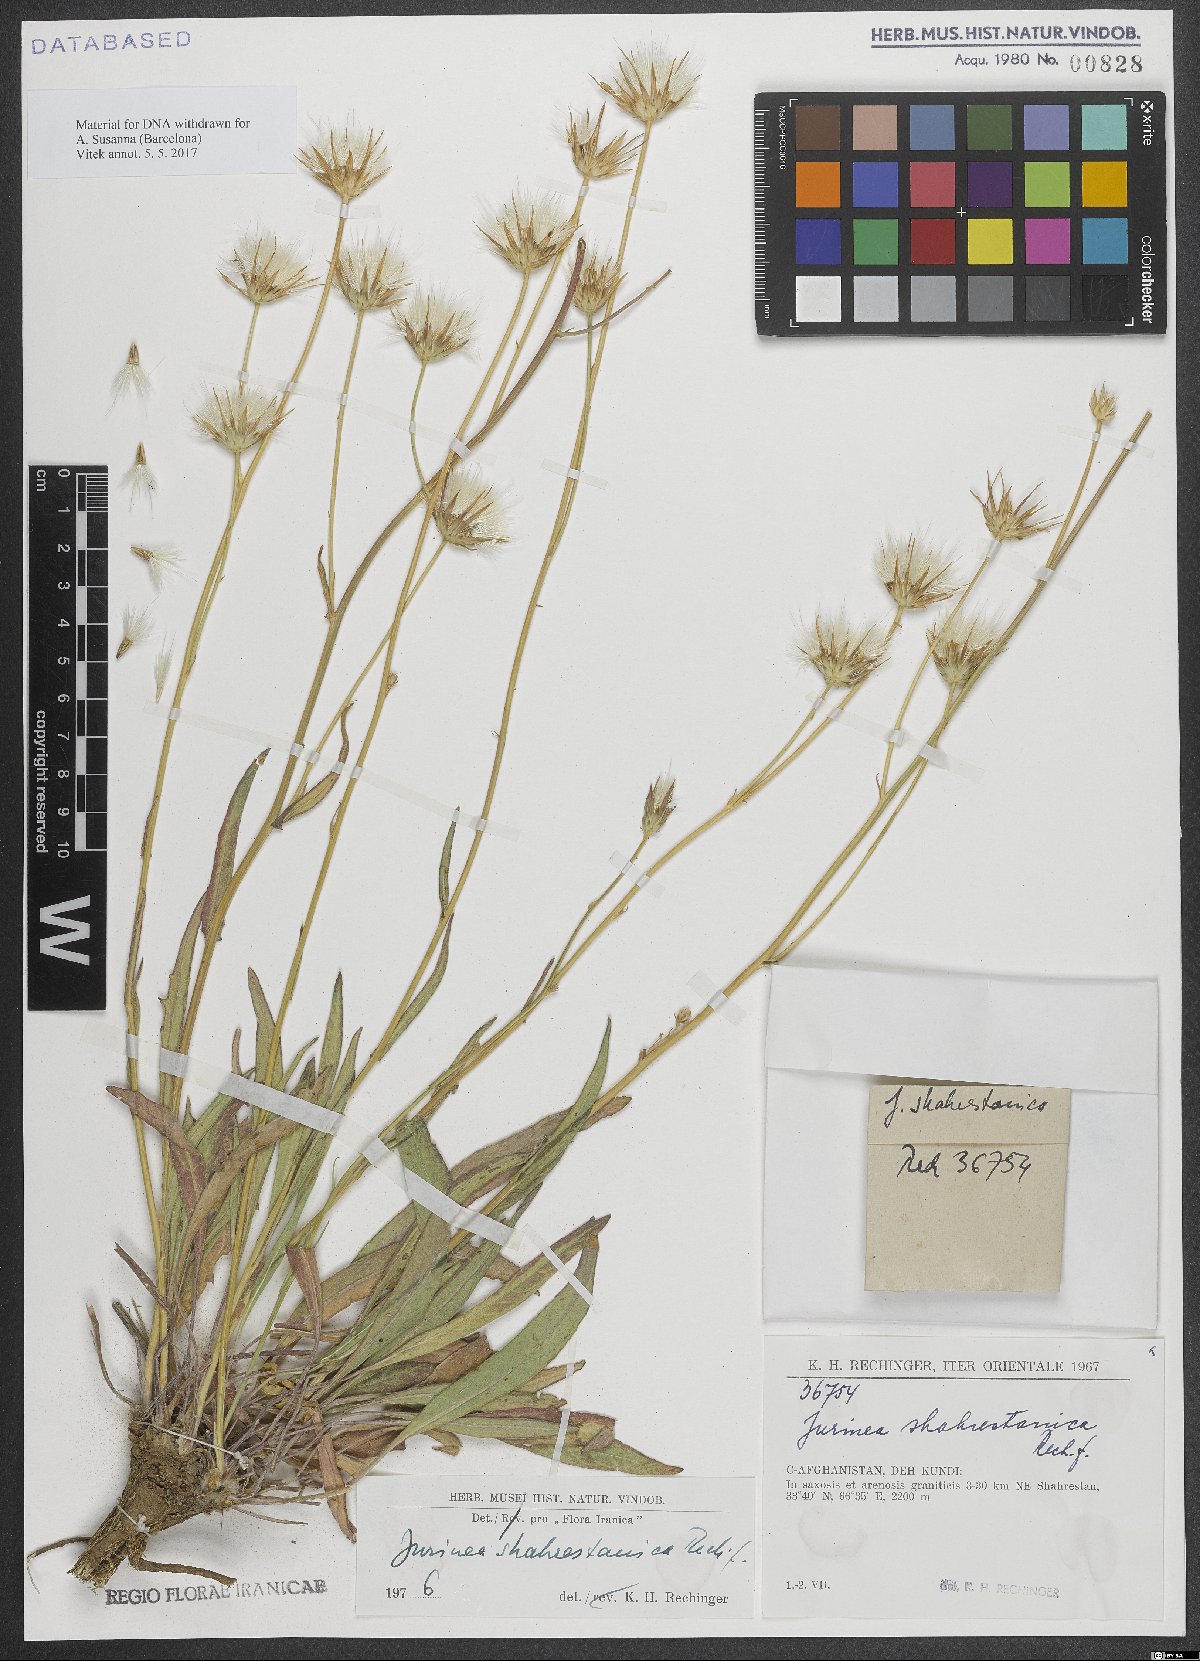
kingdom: Plantae
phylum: Tracheophyta
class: Magnoliopsida
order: Asterales
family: Asteraceae
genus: Jurinea
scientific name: Jurinea shahrestanica
